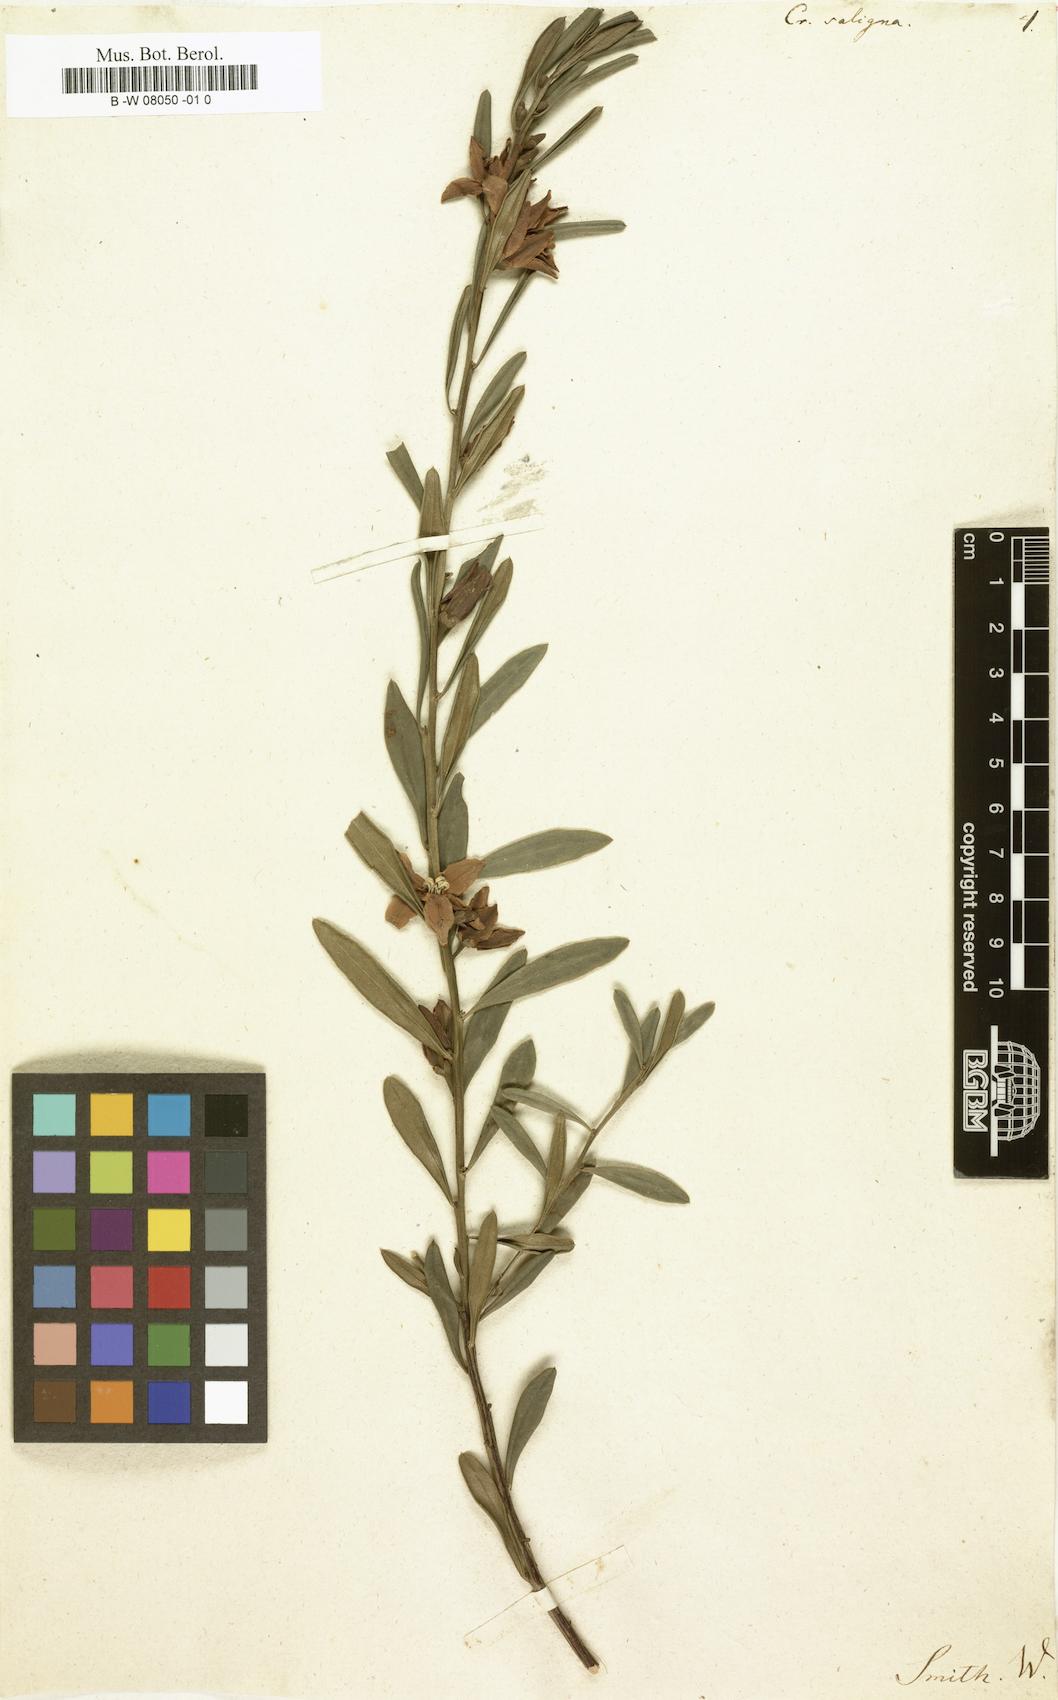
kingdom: Plantae
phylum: Tracheophyta
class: Magnoliopsida
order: Sapindales
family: Rutaceae
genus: Crowea
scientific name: Crowea saligna
